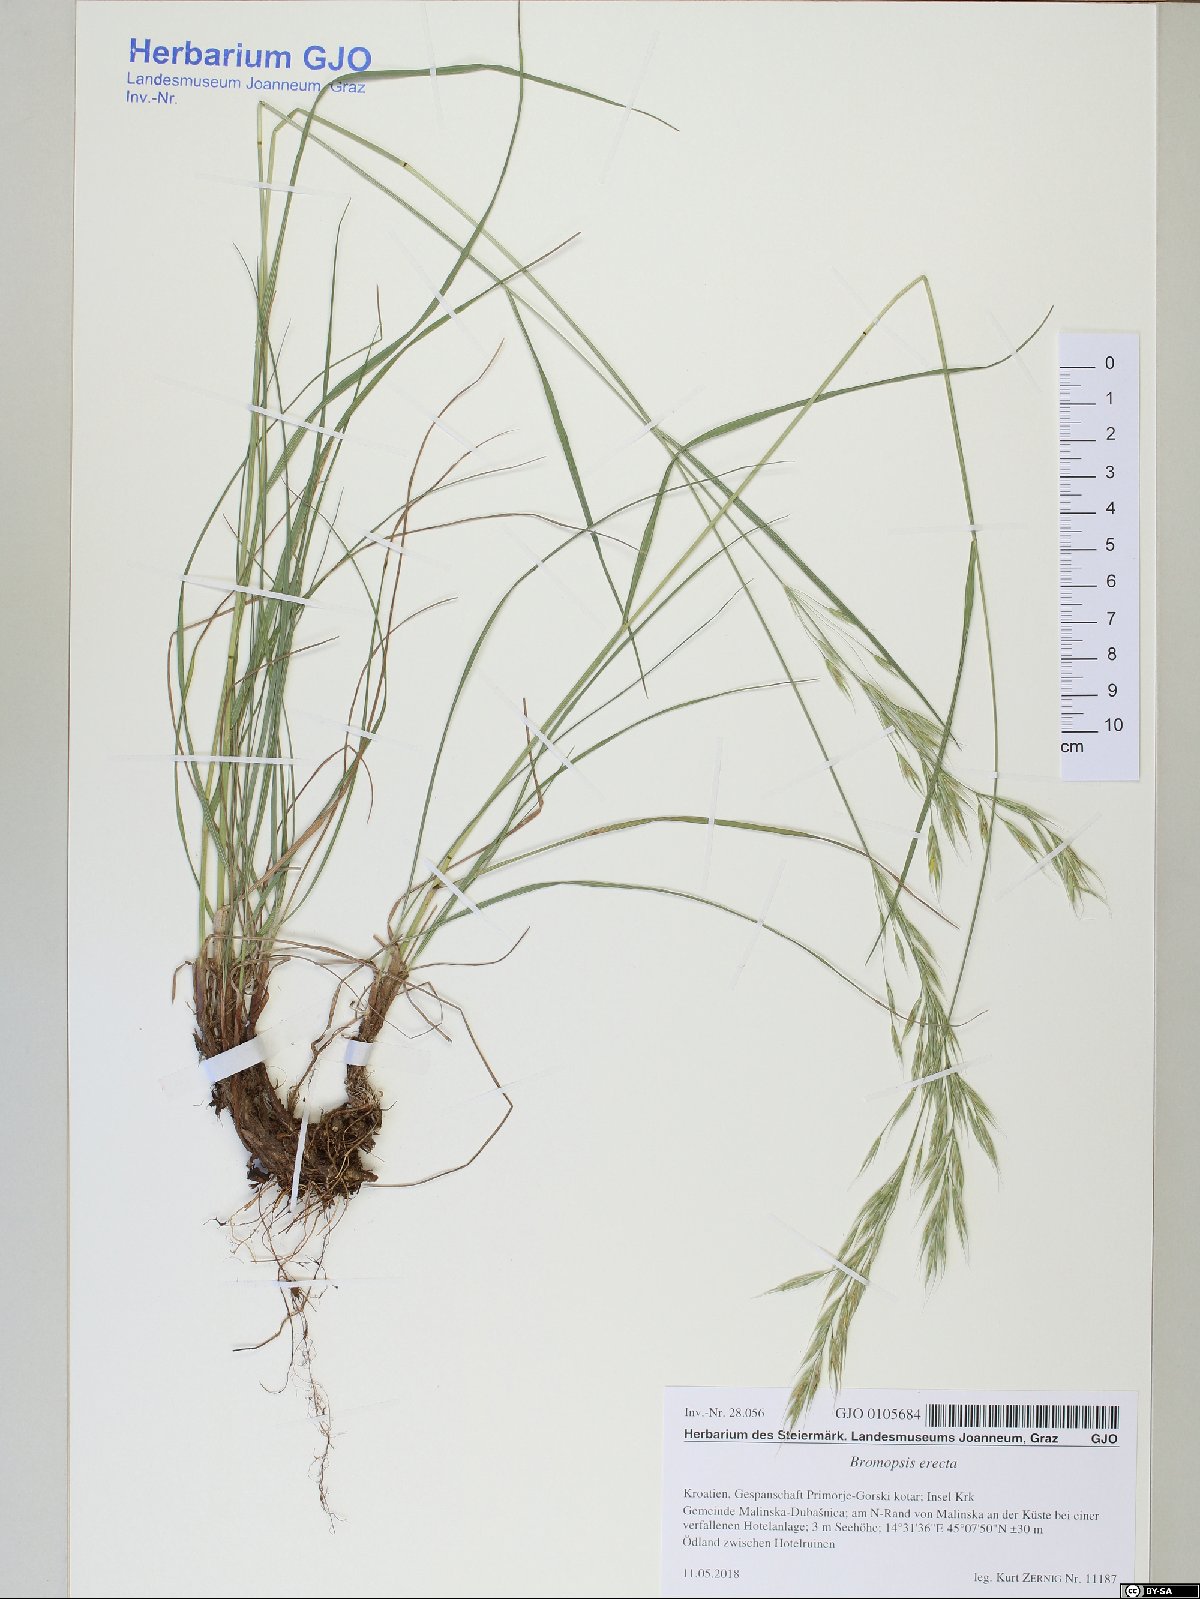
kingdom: Plantae
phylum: Tracheophyta
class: Liliopsida
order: Poales
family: Poaceae
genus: Bromus
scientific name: Bromus erectus
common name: Erect brome
